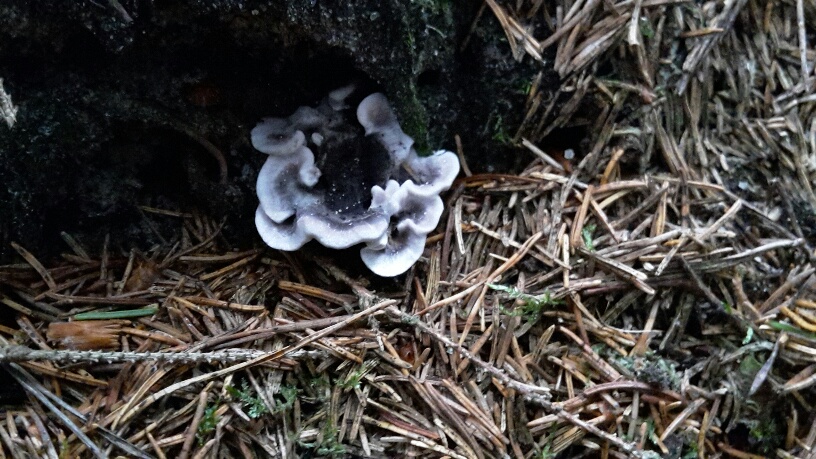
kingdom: Fungi
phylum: Basidiomycota
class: Agaricomycetes
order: Thelephorales
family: Thelephoraceae
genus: Phellodon
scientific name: Phellodon tomentosus
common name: vellugtende duftpigsvamp
